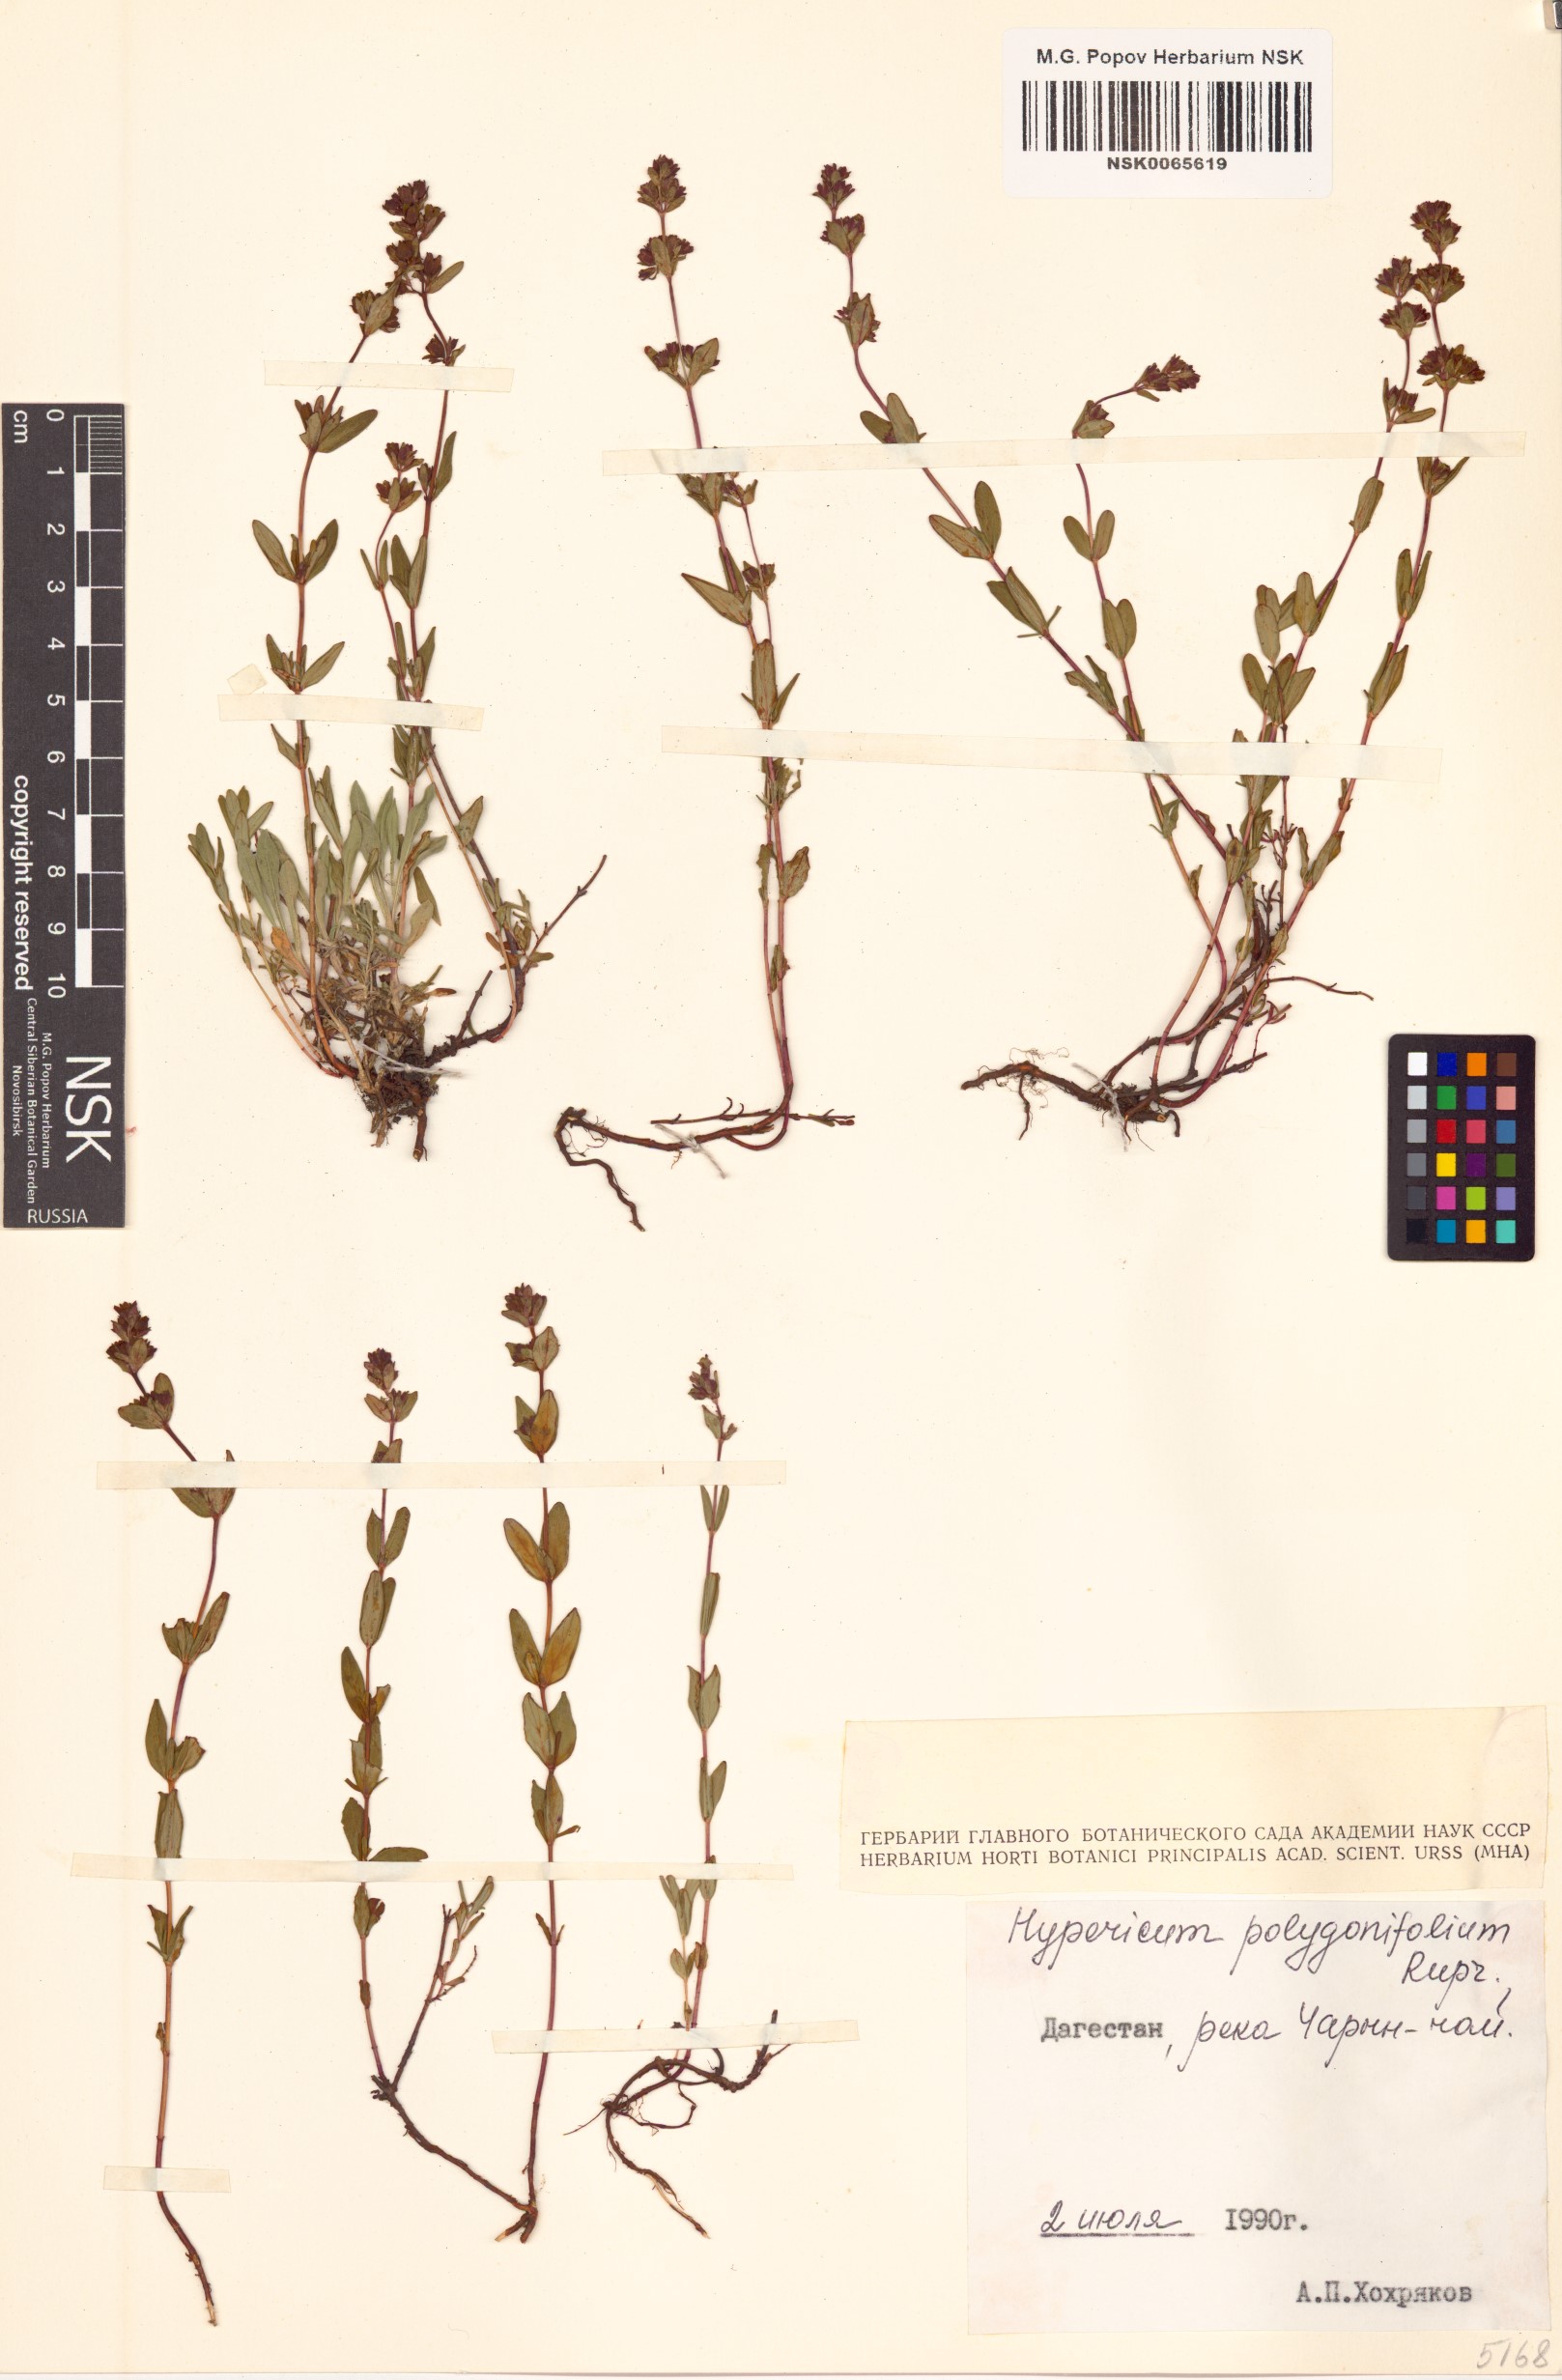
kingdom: Plantae
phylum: Tracheophyta
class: Magnoliopsida
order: Malpighiales
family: Hypericaceae
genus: Hypericum
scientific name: Hypericum linarioides
